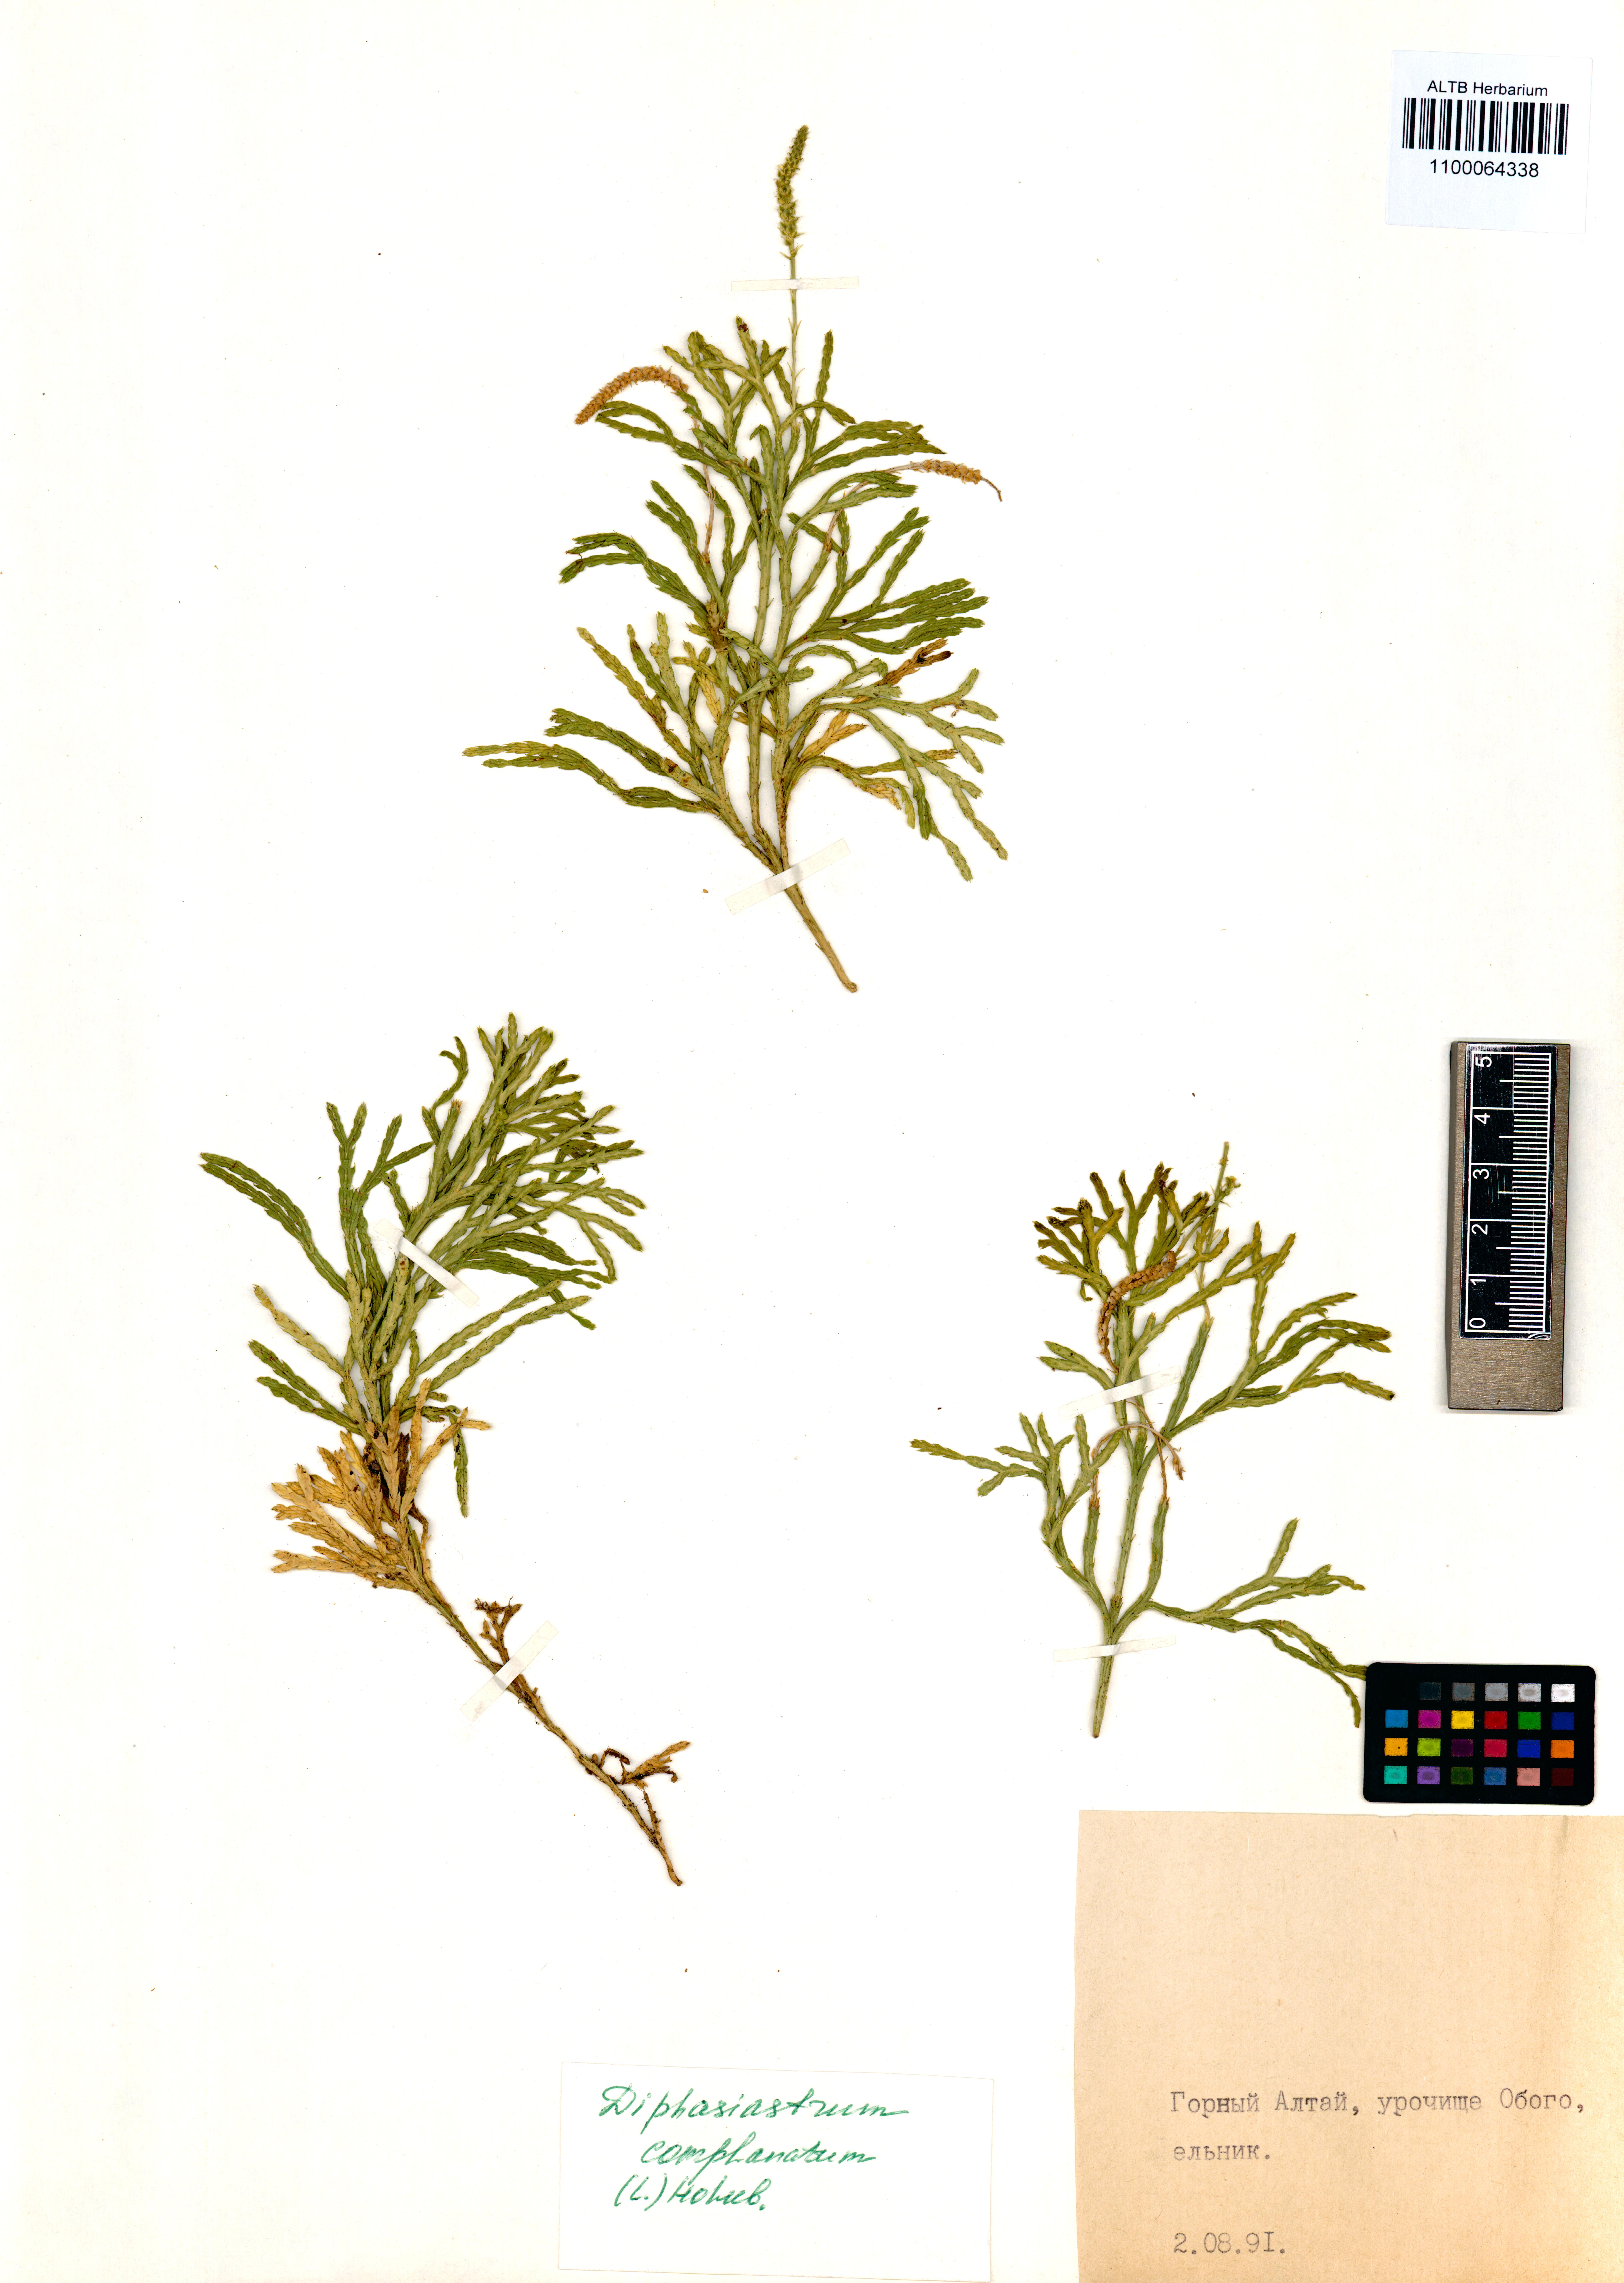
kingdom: Plantae
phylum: Tracheophyta
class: Lycopodiopsida
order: Lycopodiales
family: Lycopodiaceae
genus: Diphasiastrum
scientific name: Diphasiastrum complanatum
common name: Northern running-pine
